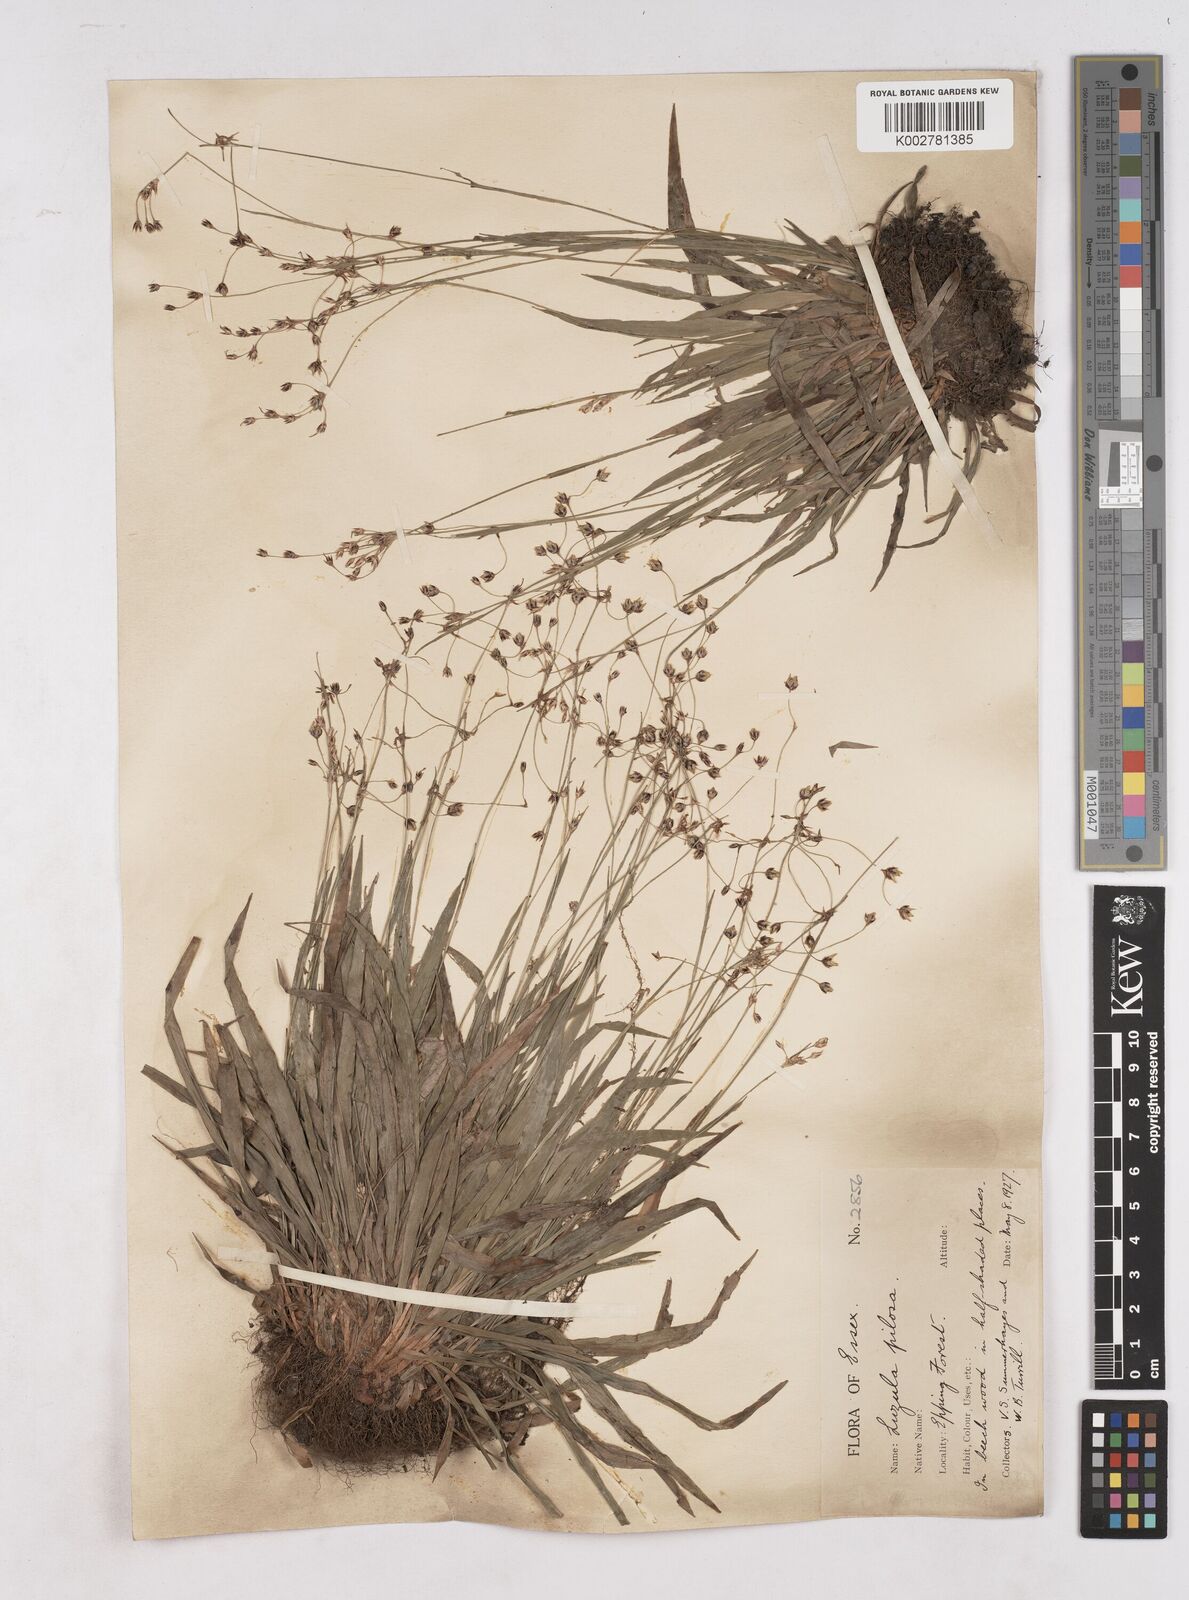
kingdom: Plantae
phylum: Tracheophyta
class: Liliopsida
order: Poales
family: Juncaceae
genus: Luzula
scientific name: Luzula pilosa
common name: Hairy wood-rush
